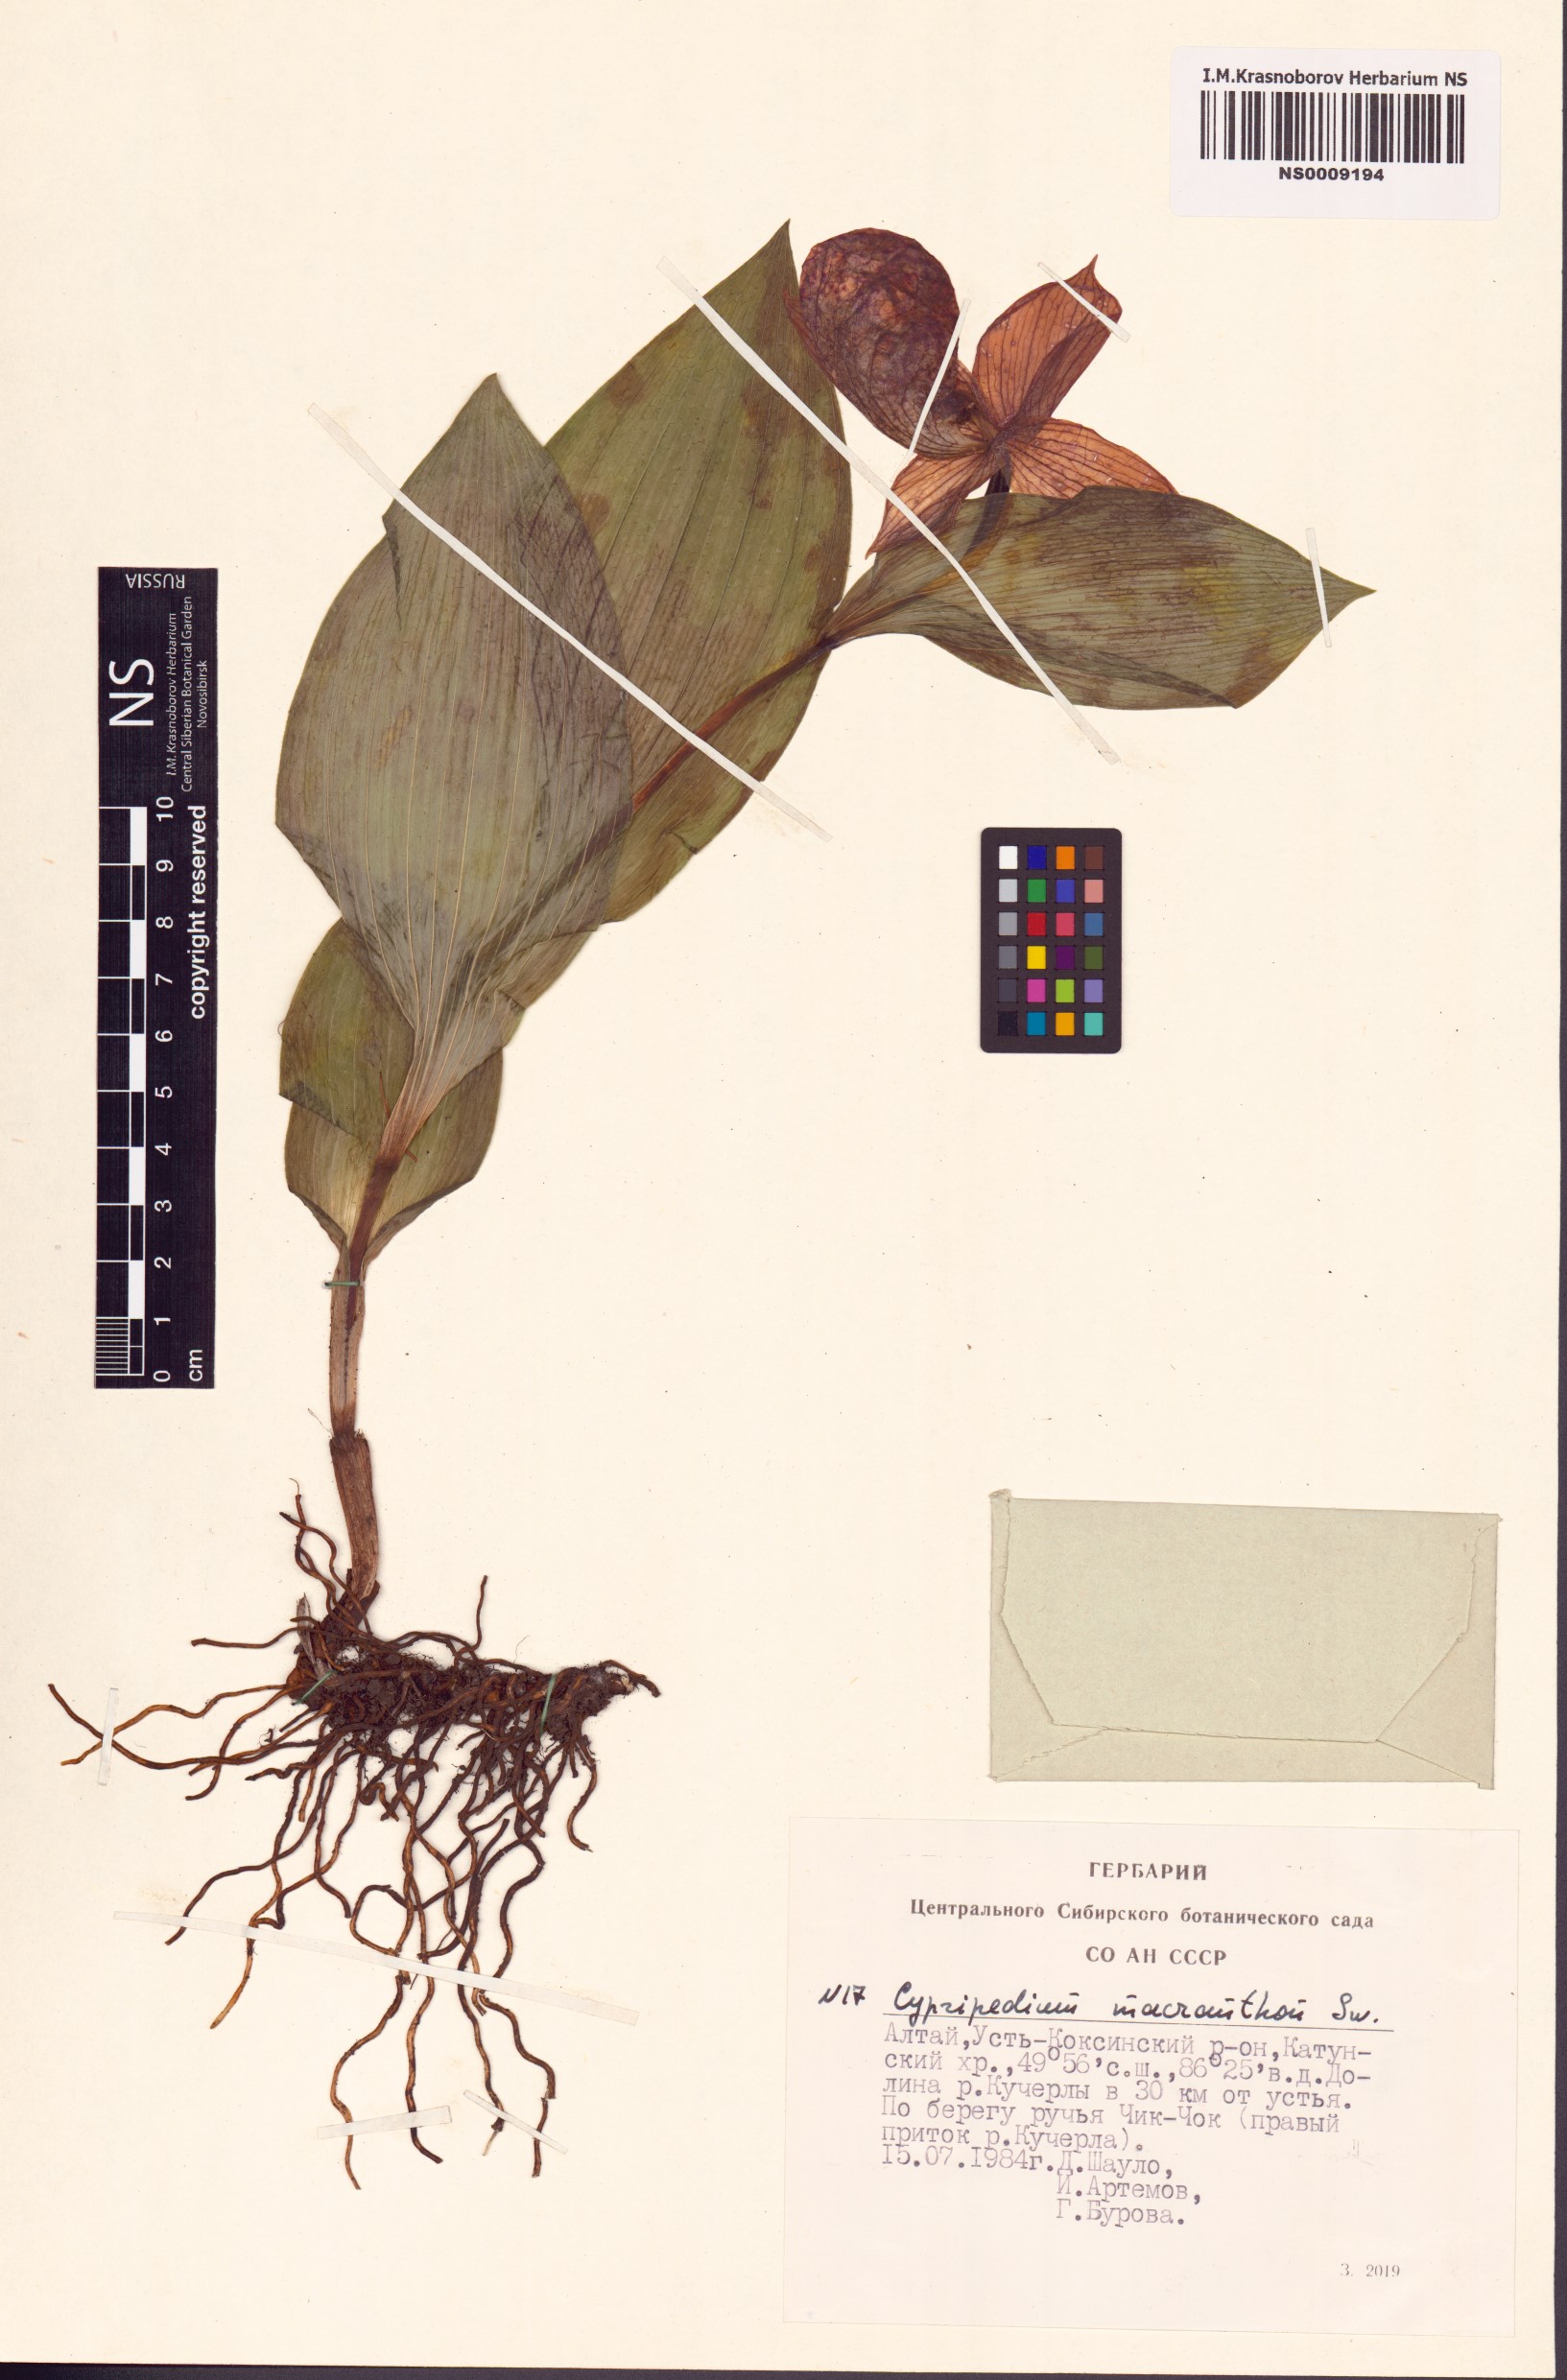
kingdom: Plantae
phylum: Tracheophyta
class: Liliopsida
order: Asparagales
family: Orchidaceae
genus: Cypripedium
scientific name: Cypripedium macranthos
